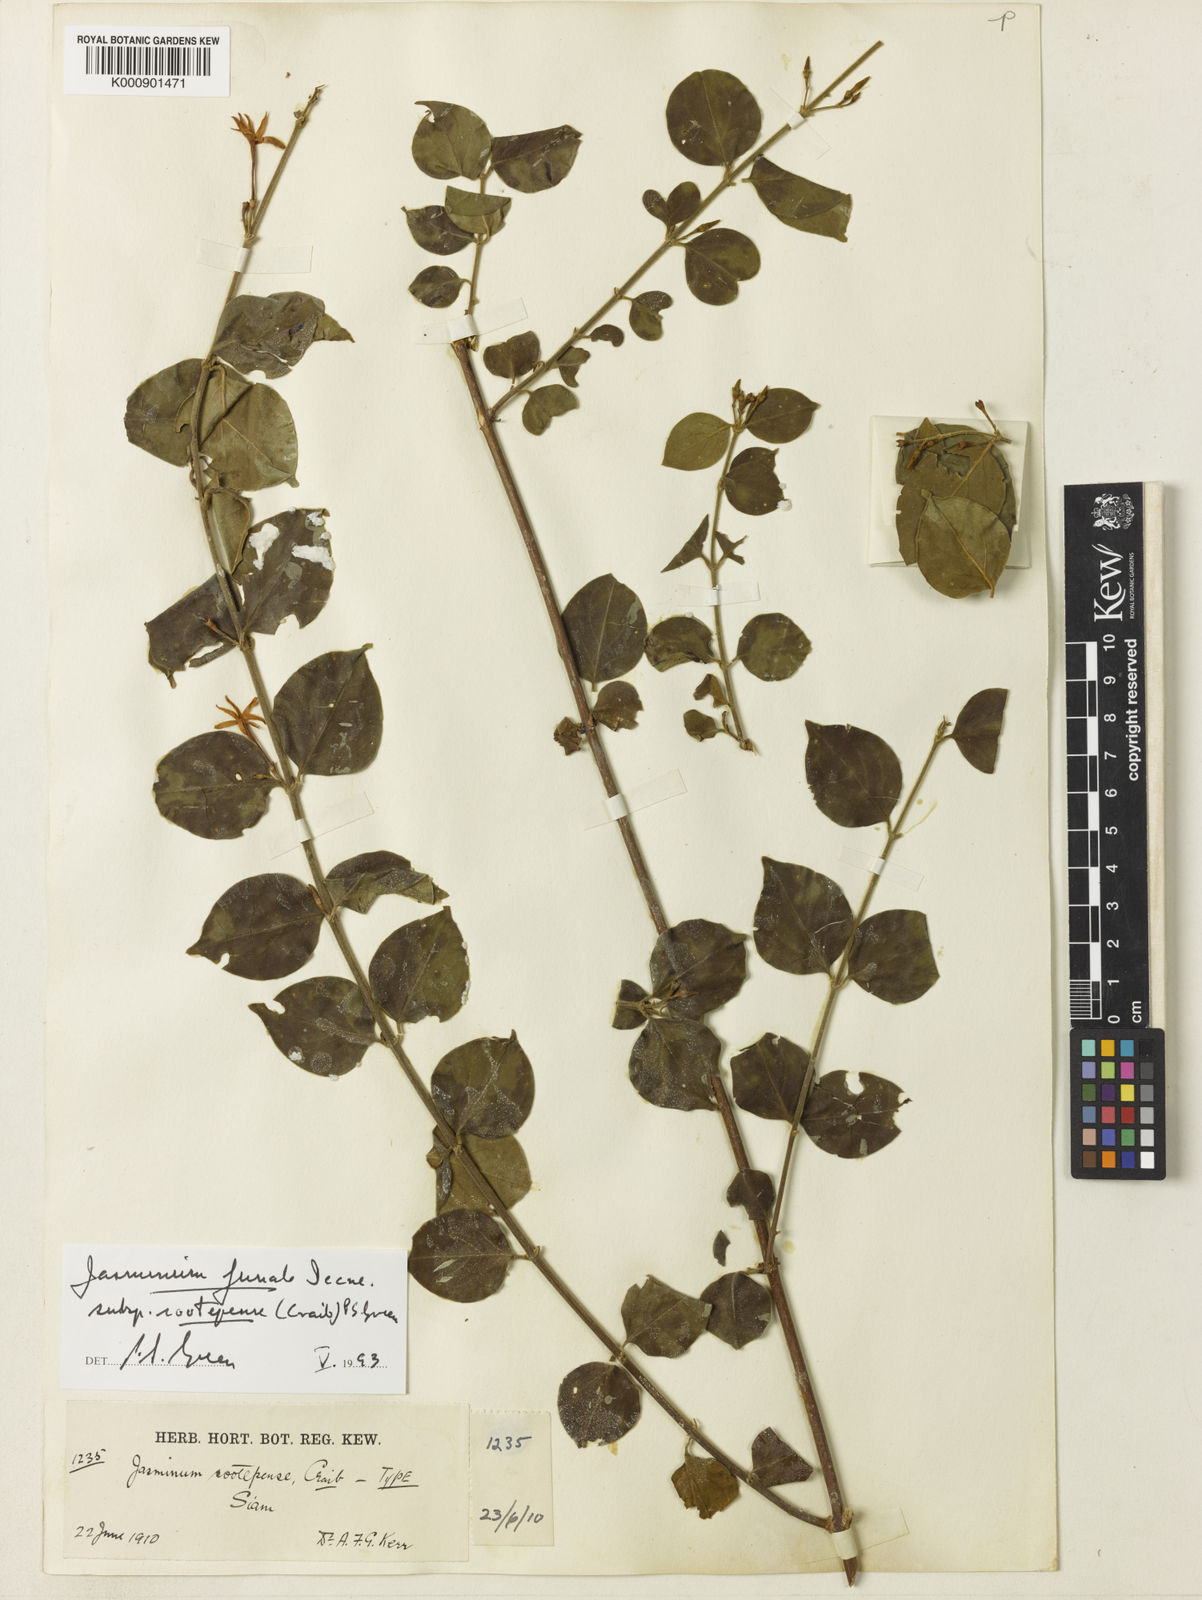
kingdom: Plantae
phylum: Tracheophyta
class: Magnoliopsida
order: Lamiales
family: Oleaceae
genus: Jasminum
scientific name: Jasminum simplicifolium
